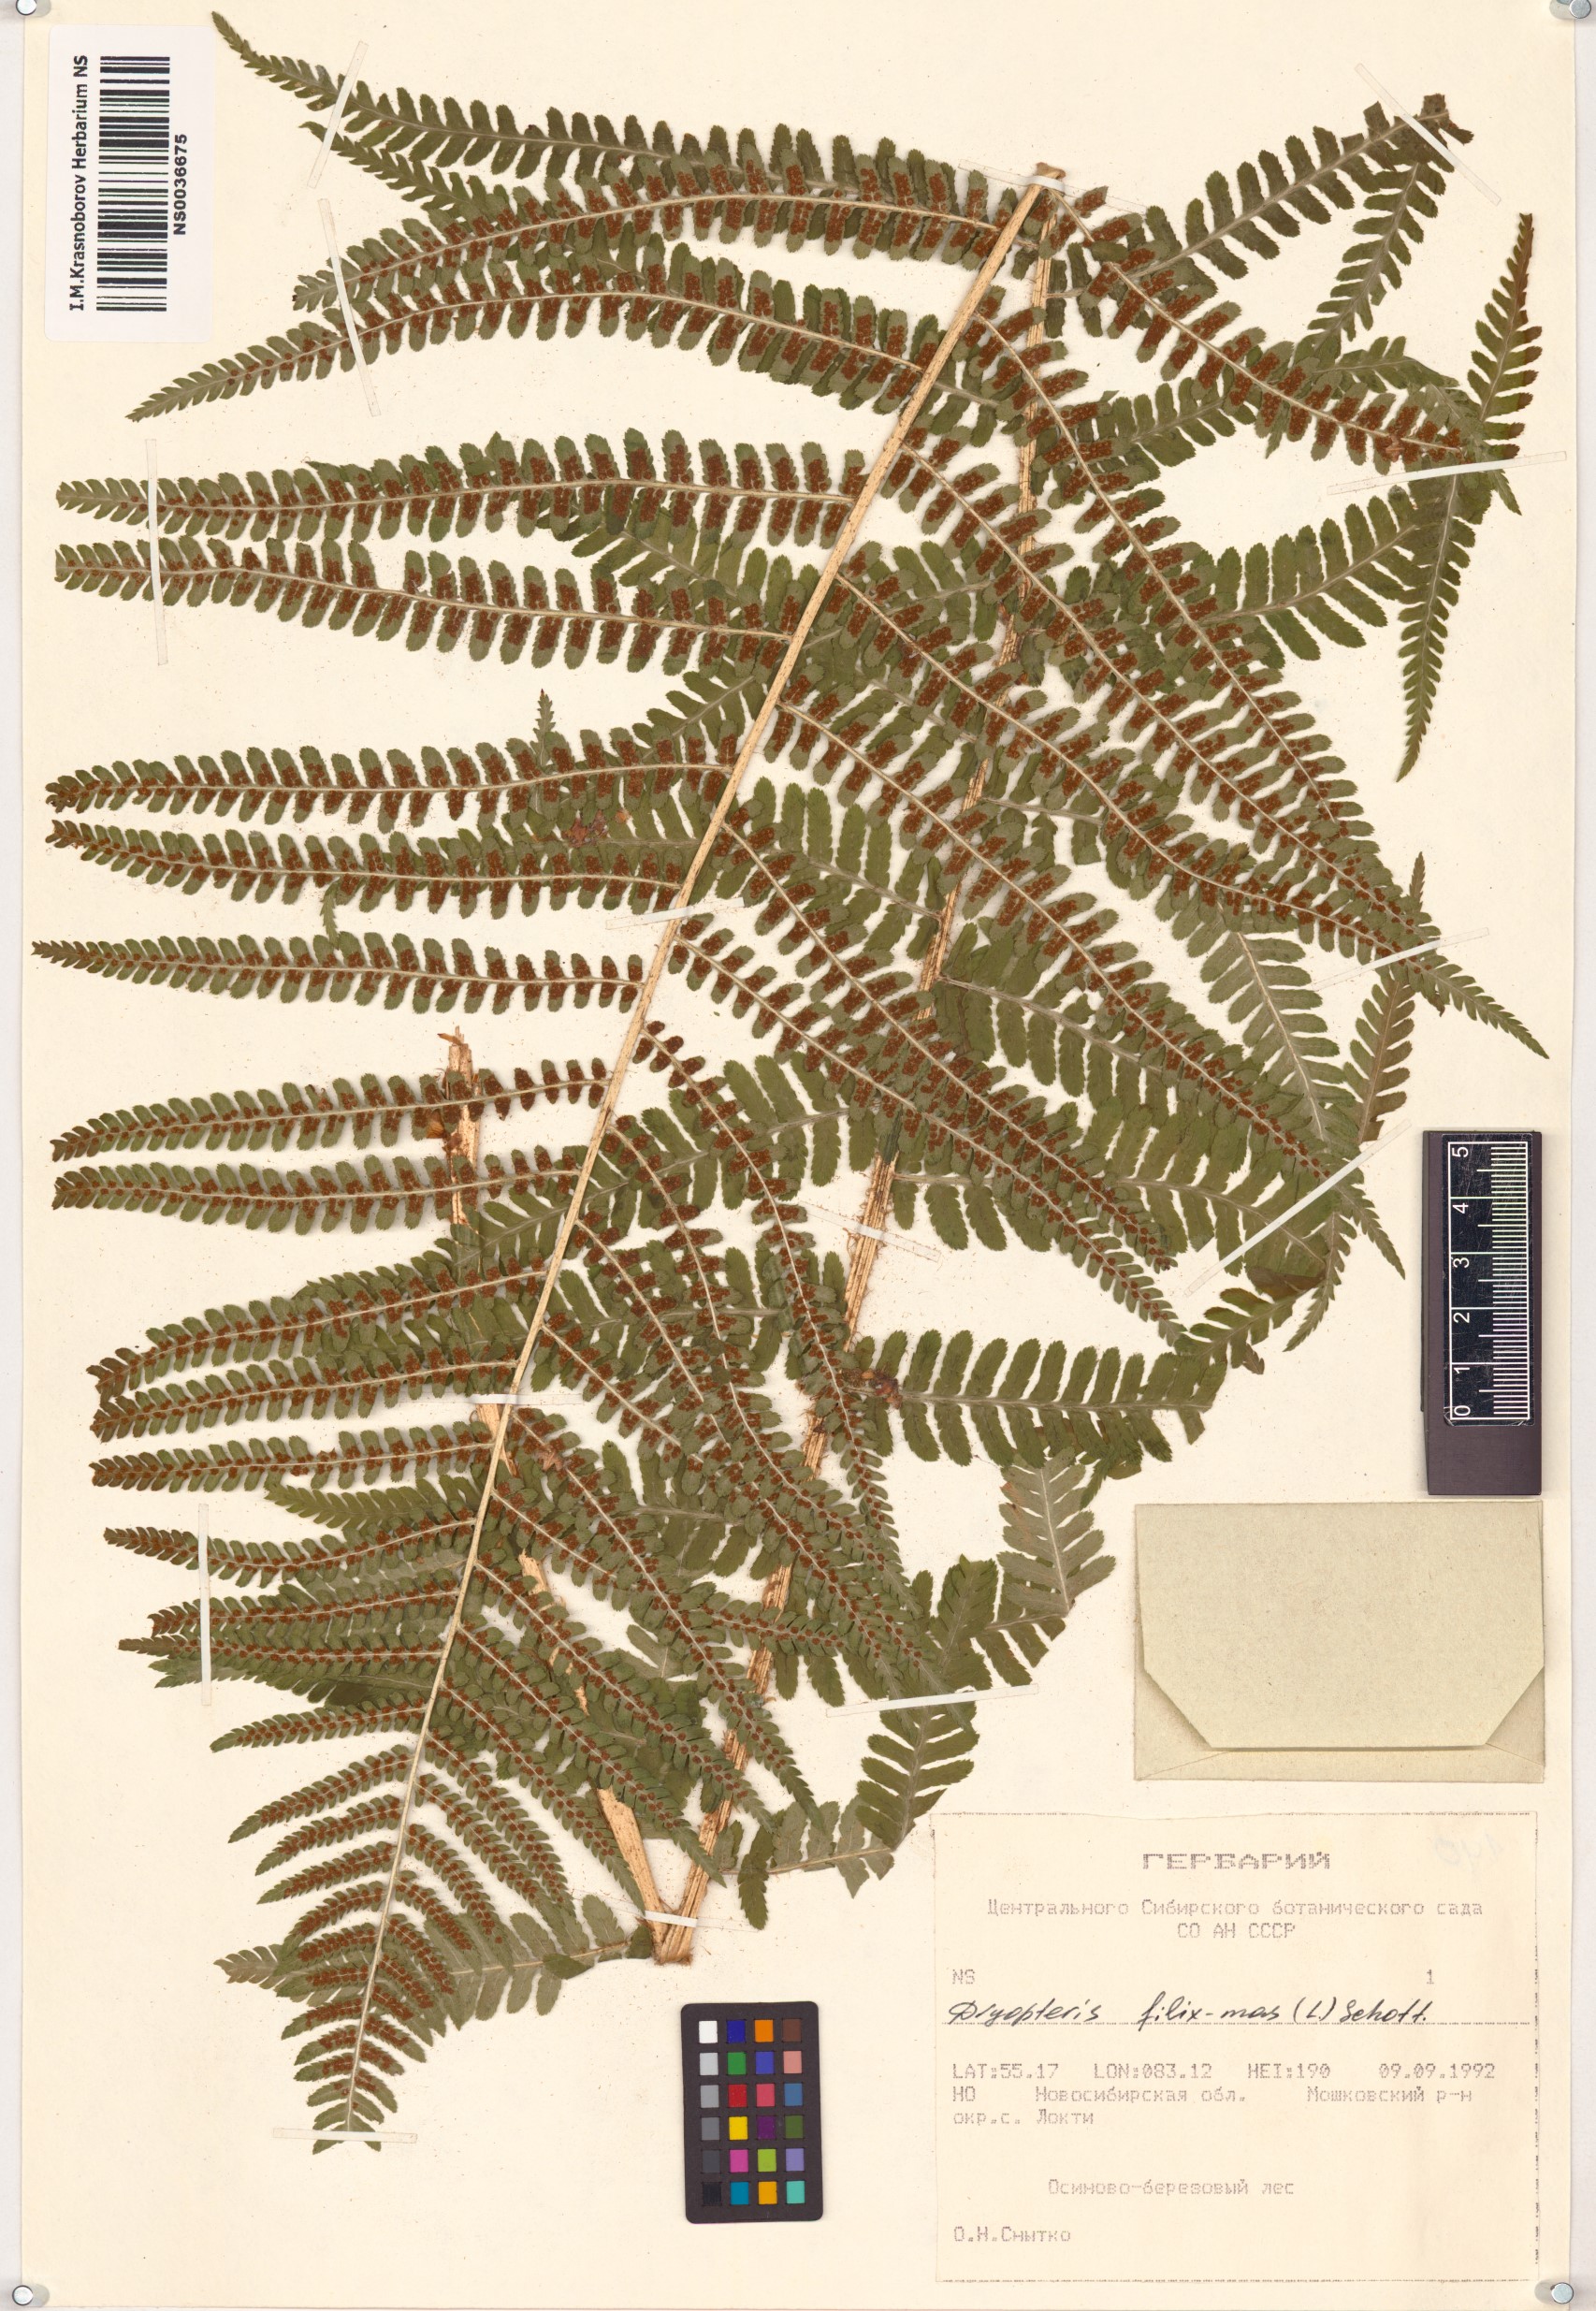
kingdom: Plantae
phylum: Tracheophyta
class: Polypodiopsida
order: Polypodiales
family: Dryopteridaceae
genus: Dryopteris
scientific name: Dryopteris filix-mas
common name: Male fern
